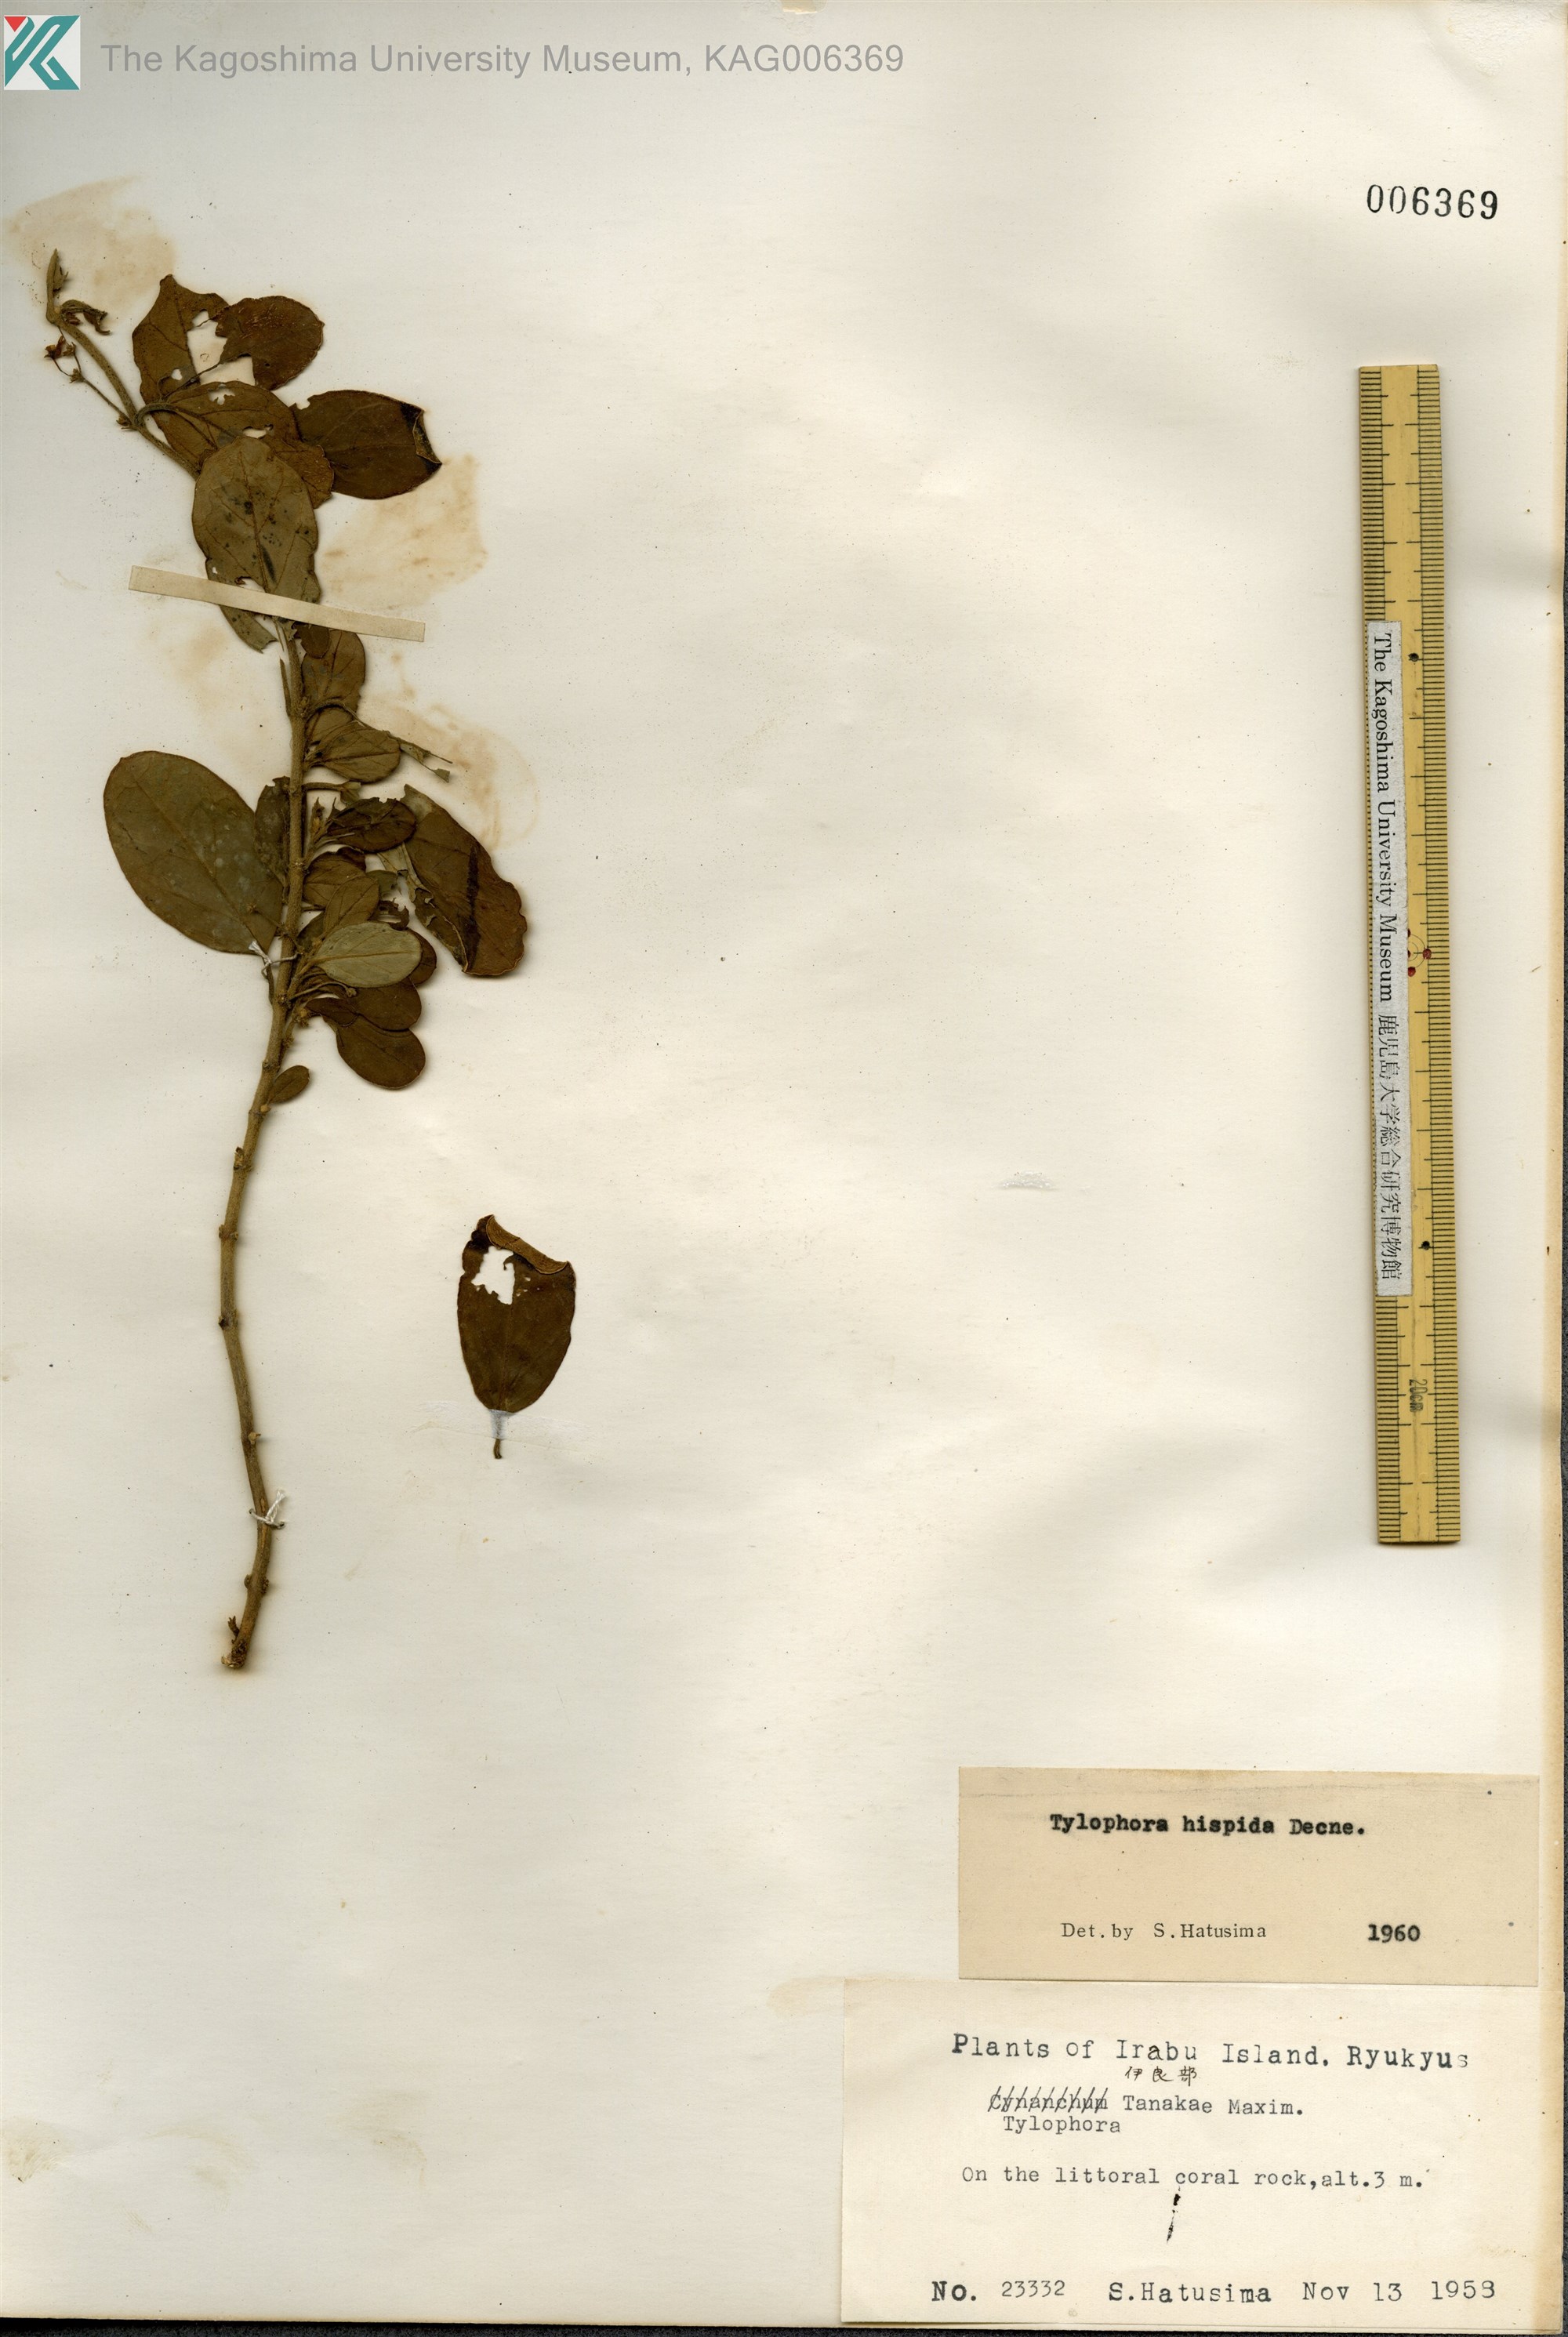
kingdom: Plantae
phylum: Tracheophyta
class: Magnoliopsida
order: Gentianales
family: Apocynaceae
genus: Vincetoxicum
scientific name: Vincetoxicum hirsutum
